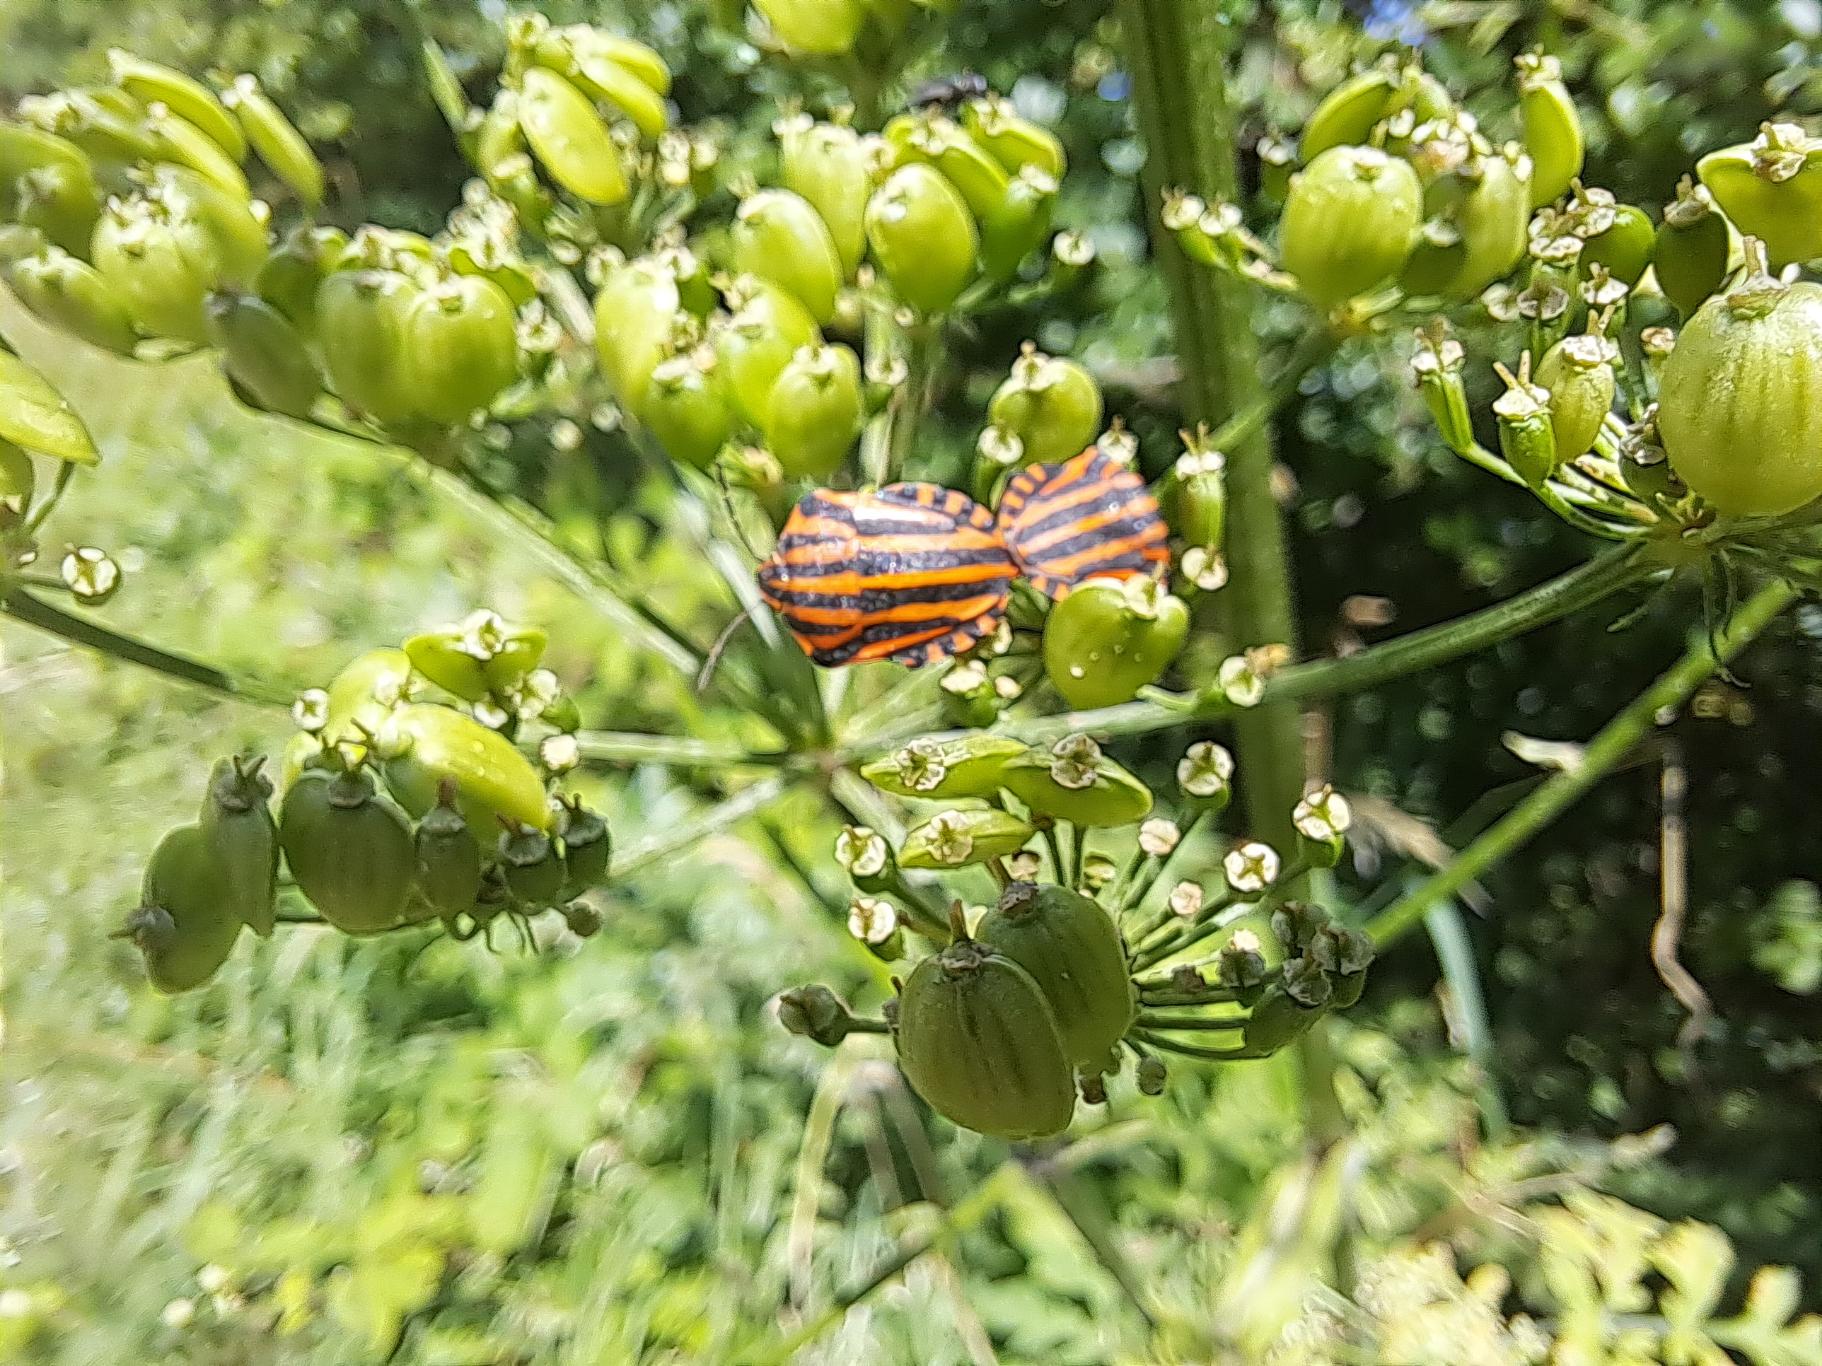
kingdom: Animalia
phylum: Arthropoda
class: Insecta
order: Hemiptera
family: Pentatomidae
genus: Graphosoma
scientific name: Graphosoma italicum
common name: Stribetæge
